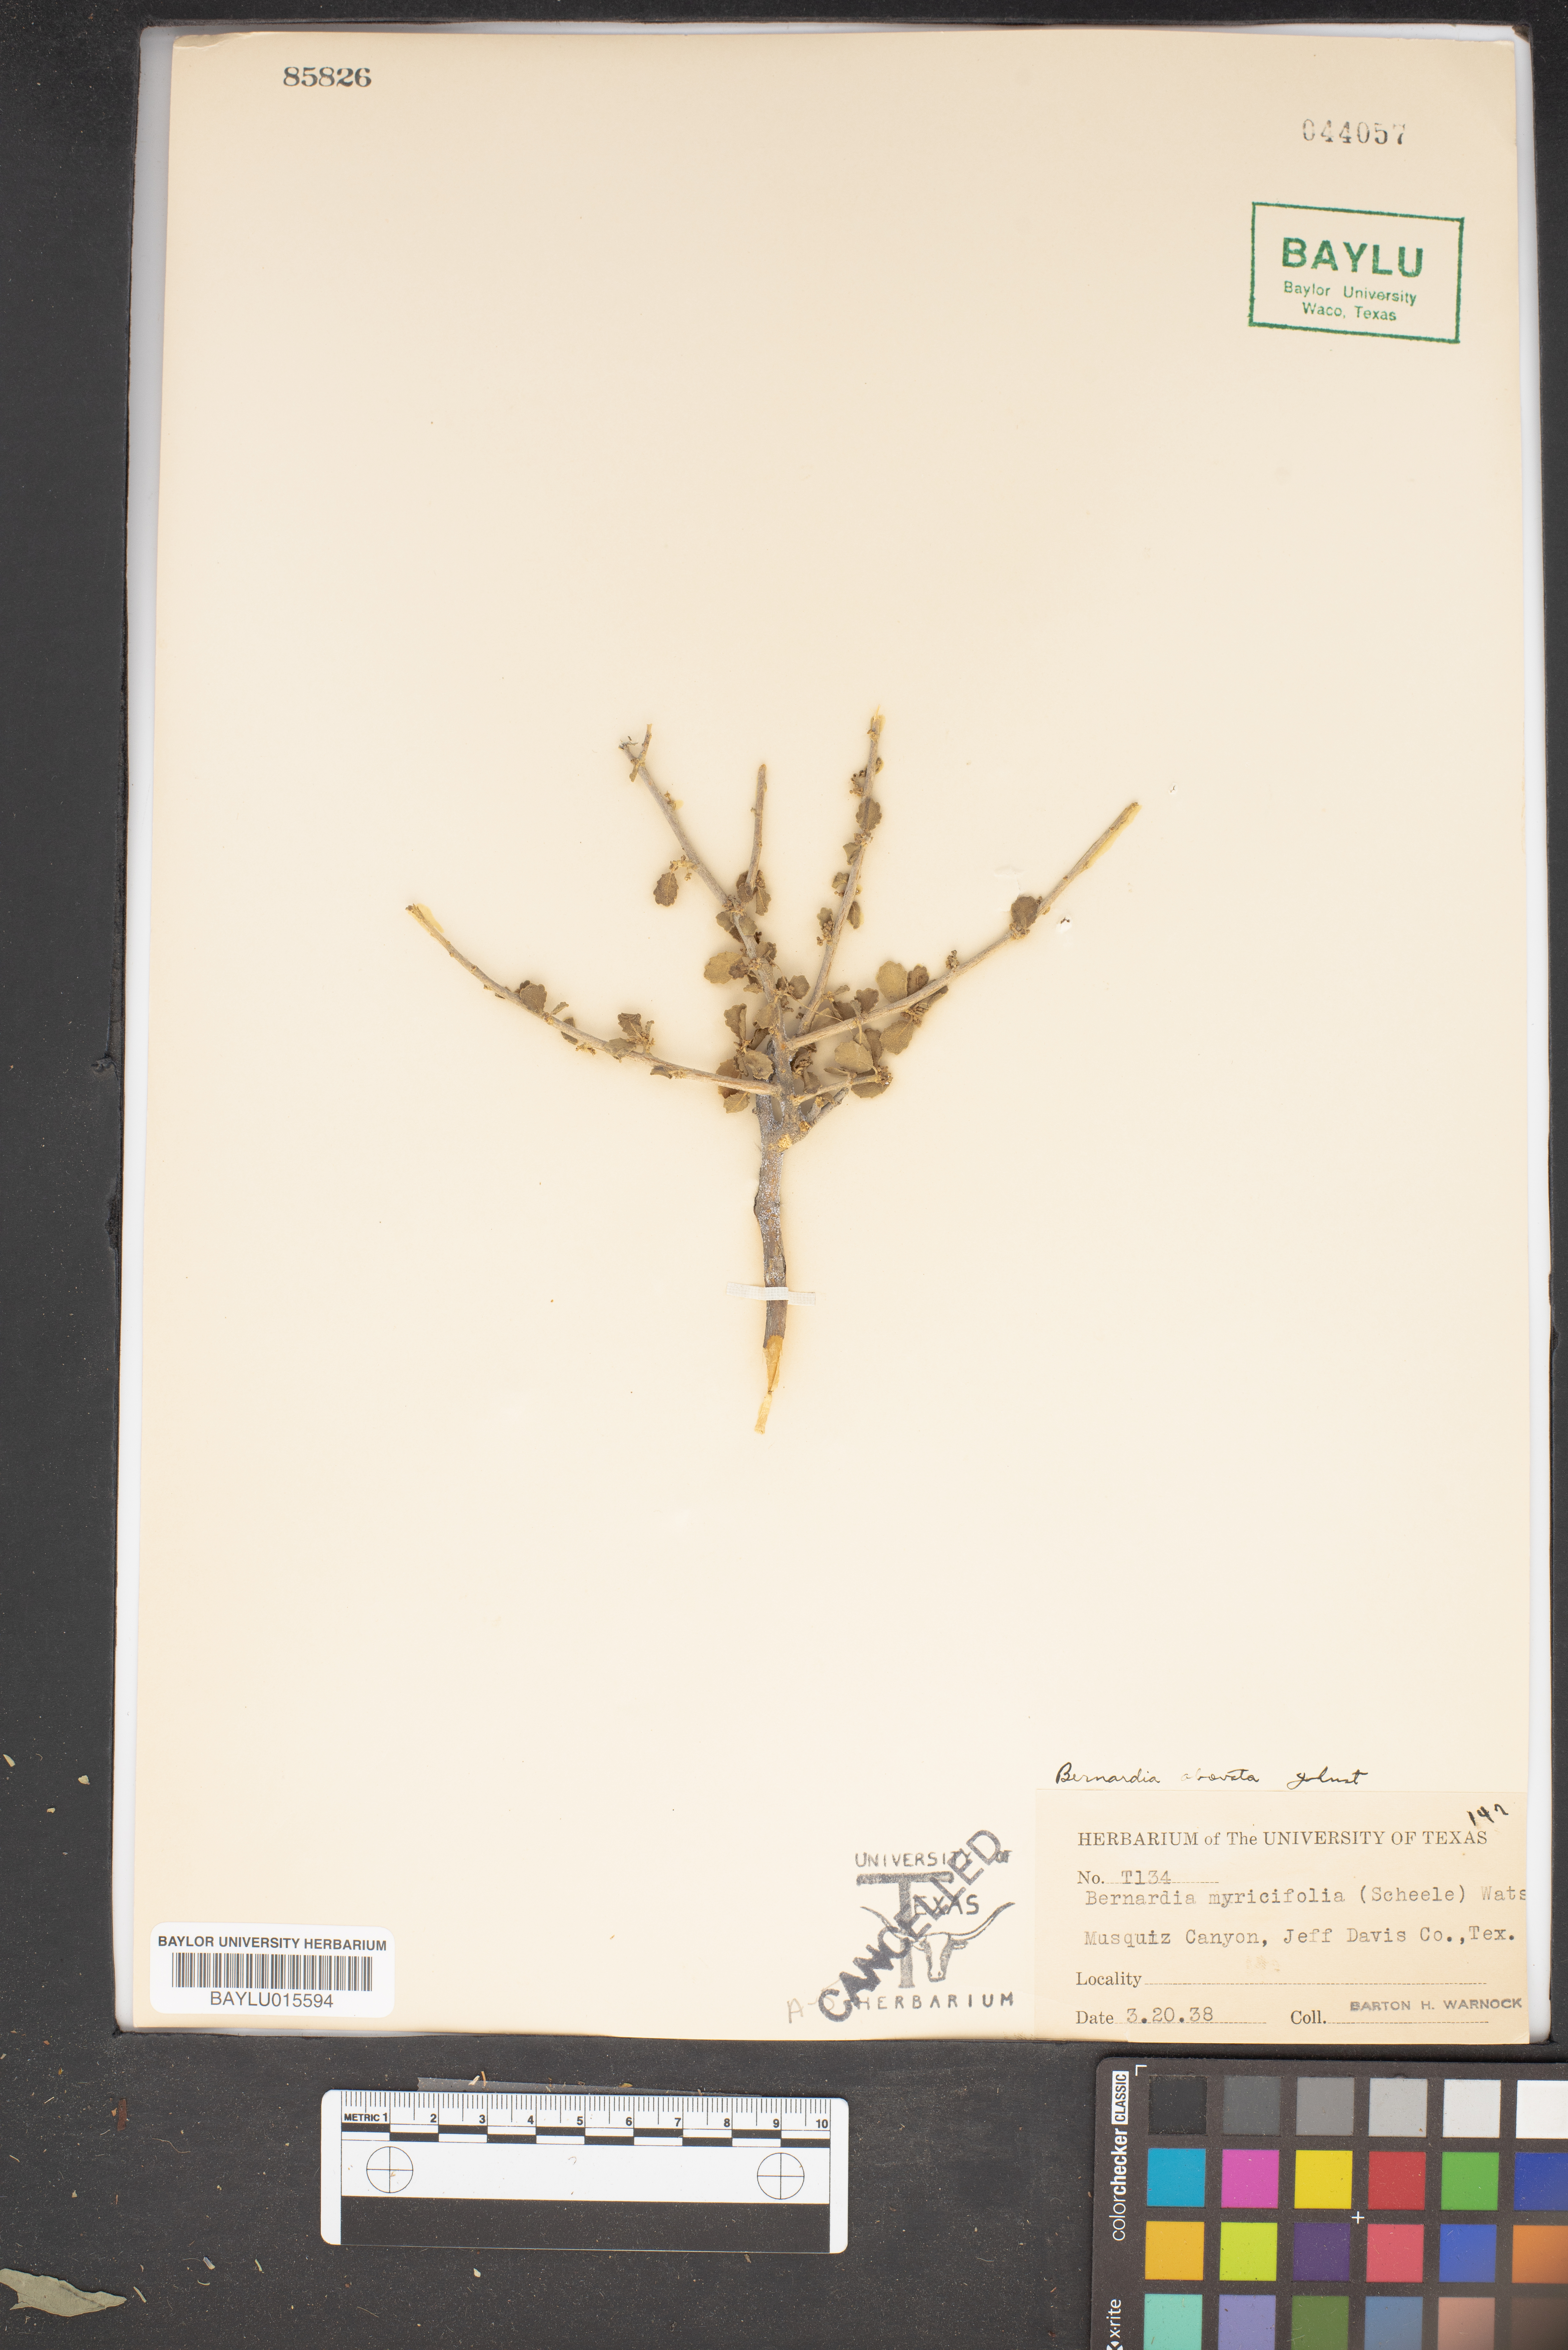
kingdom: Plantae
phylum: Tracheophyta
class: Magnoliopsida
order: Malpighiales
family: Euphorbiaceae
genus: Bernardia
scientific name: Bernardia myricifolia
